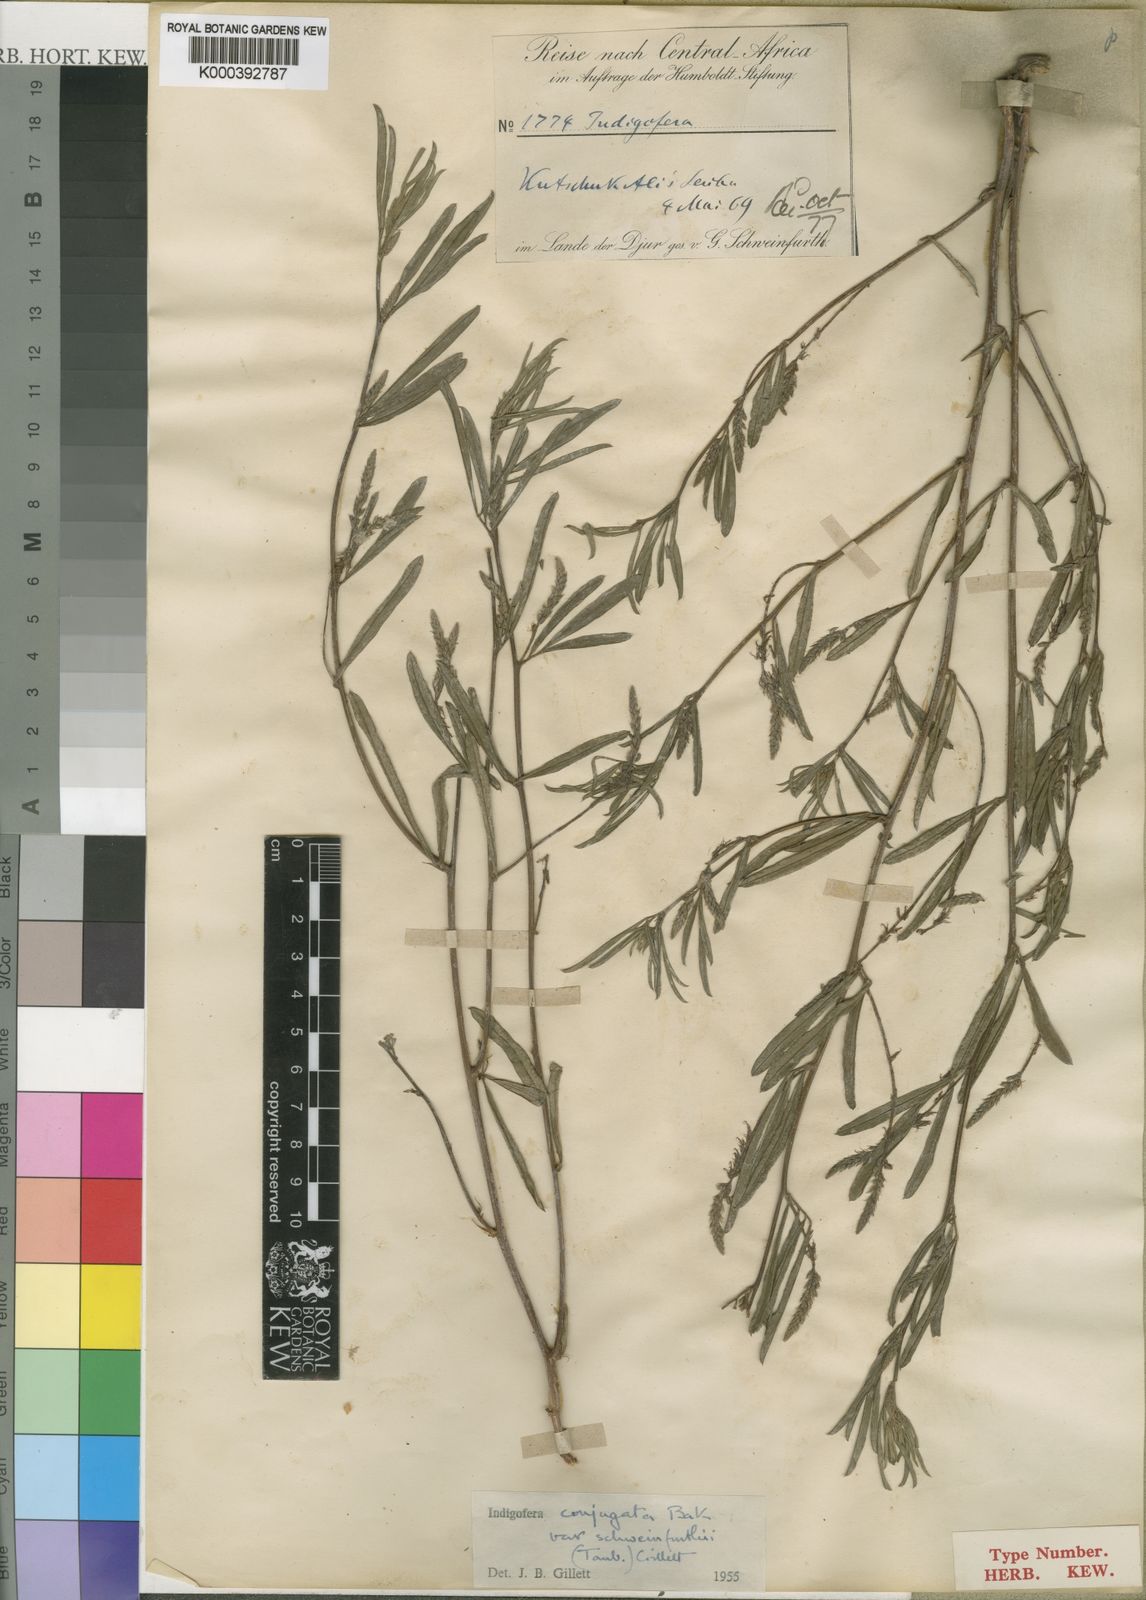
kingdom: Plantae
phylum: Tracheophyta
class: Magnoliopsida
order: Fabales
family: Fabaceae
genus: Indigofera
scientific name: Indigofera conjugata
